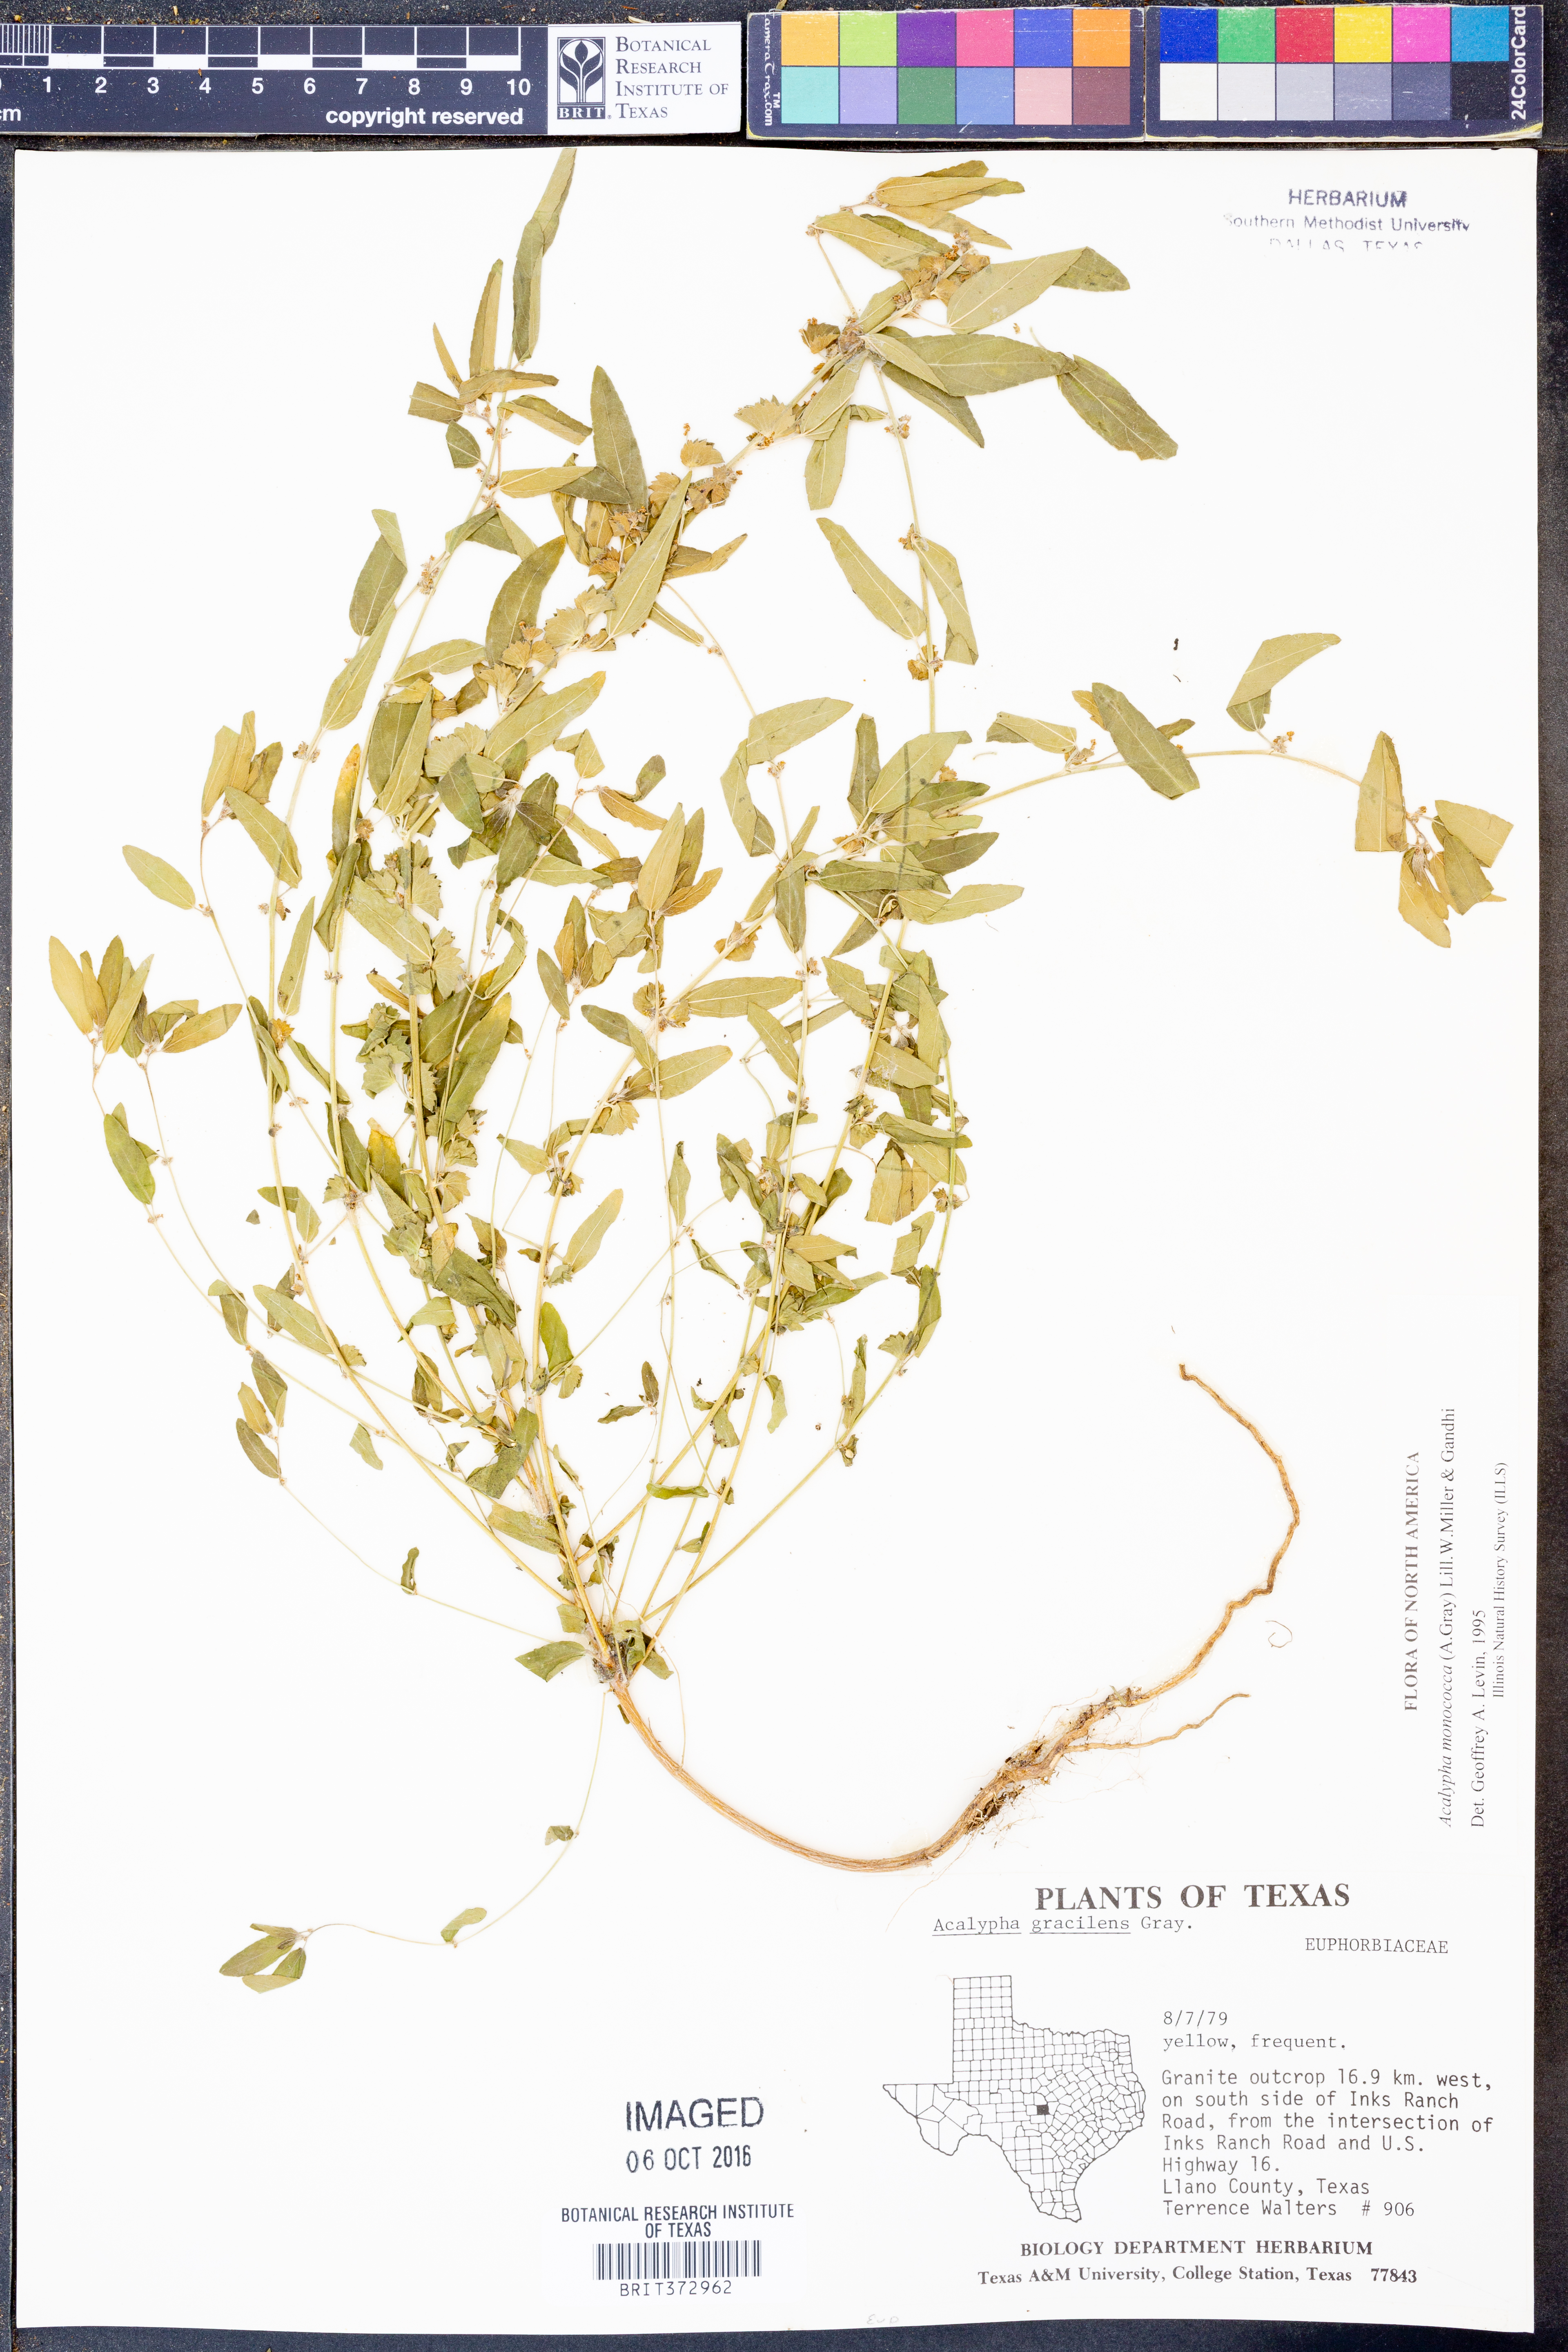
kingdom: Plantae
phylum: Tracheophyta
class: Magnoliopsida
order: Malpighiales
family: Euphorbiaceae
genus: Acalypha
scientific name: Acalypha monococca
